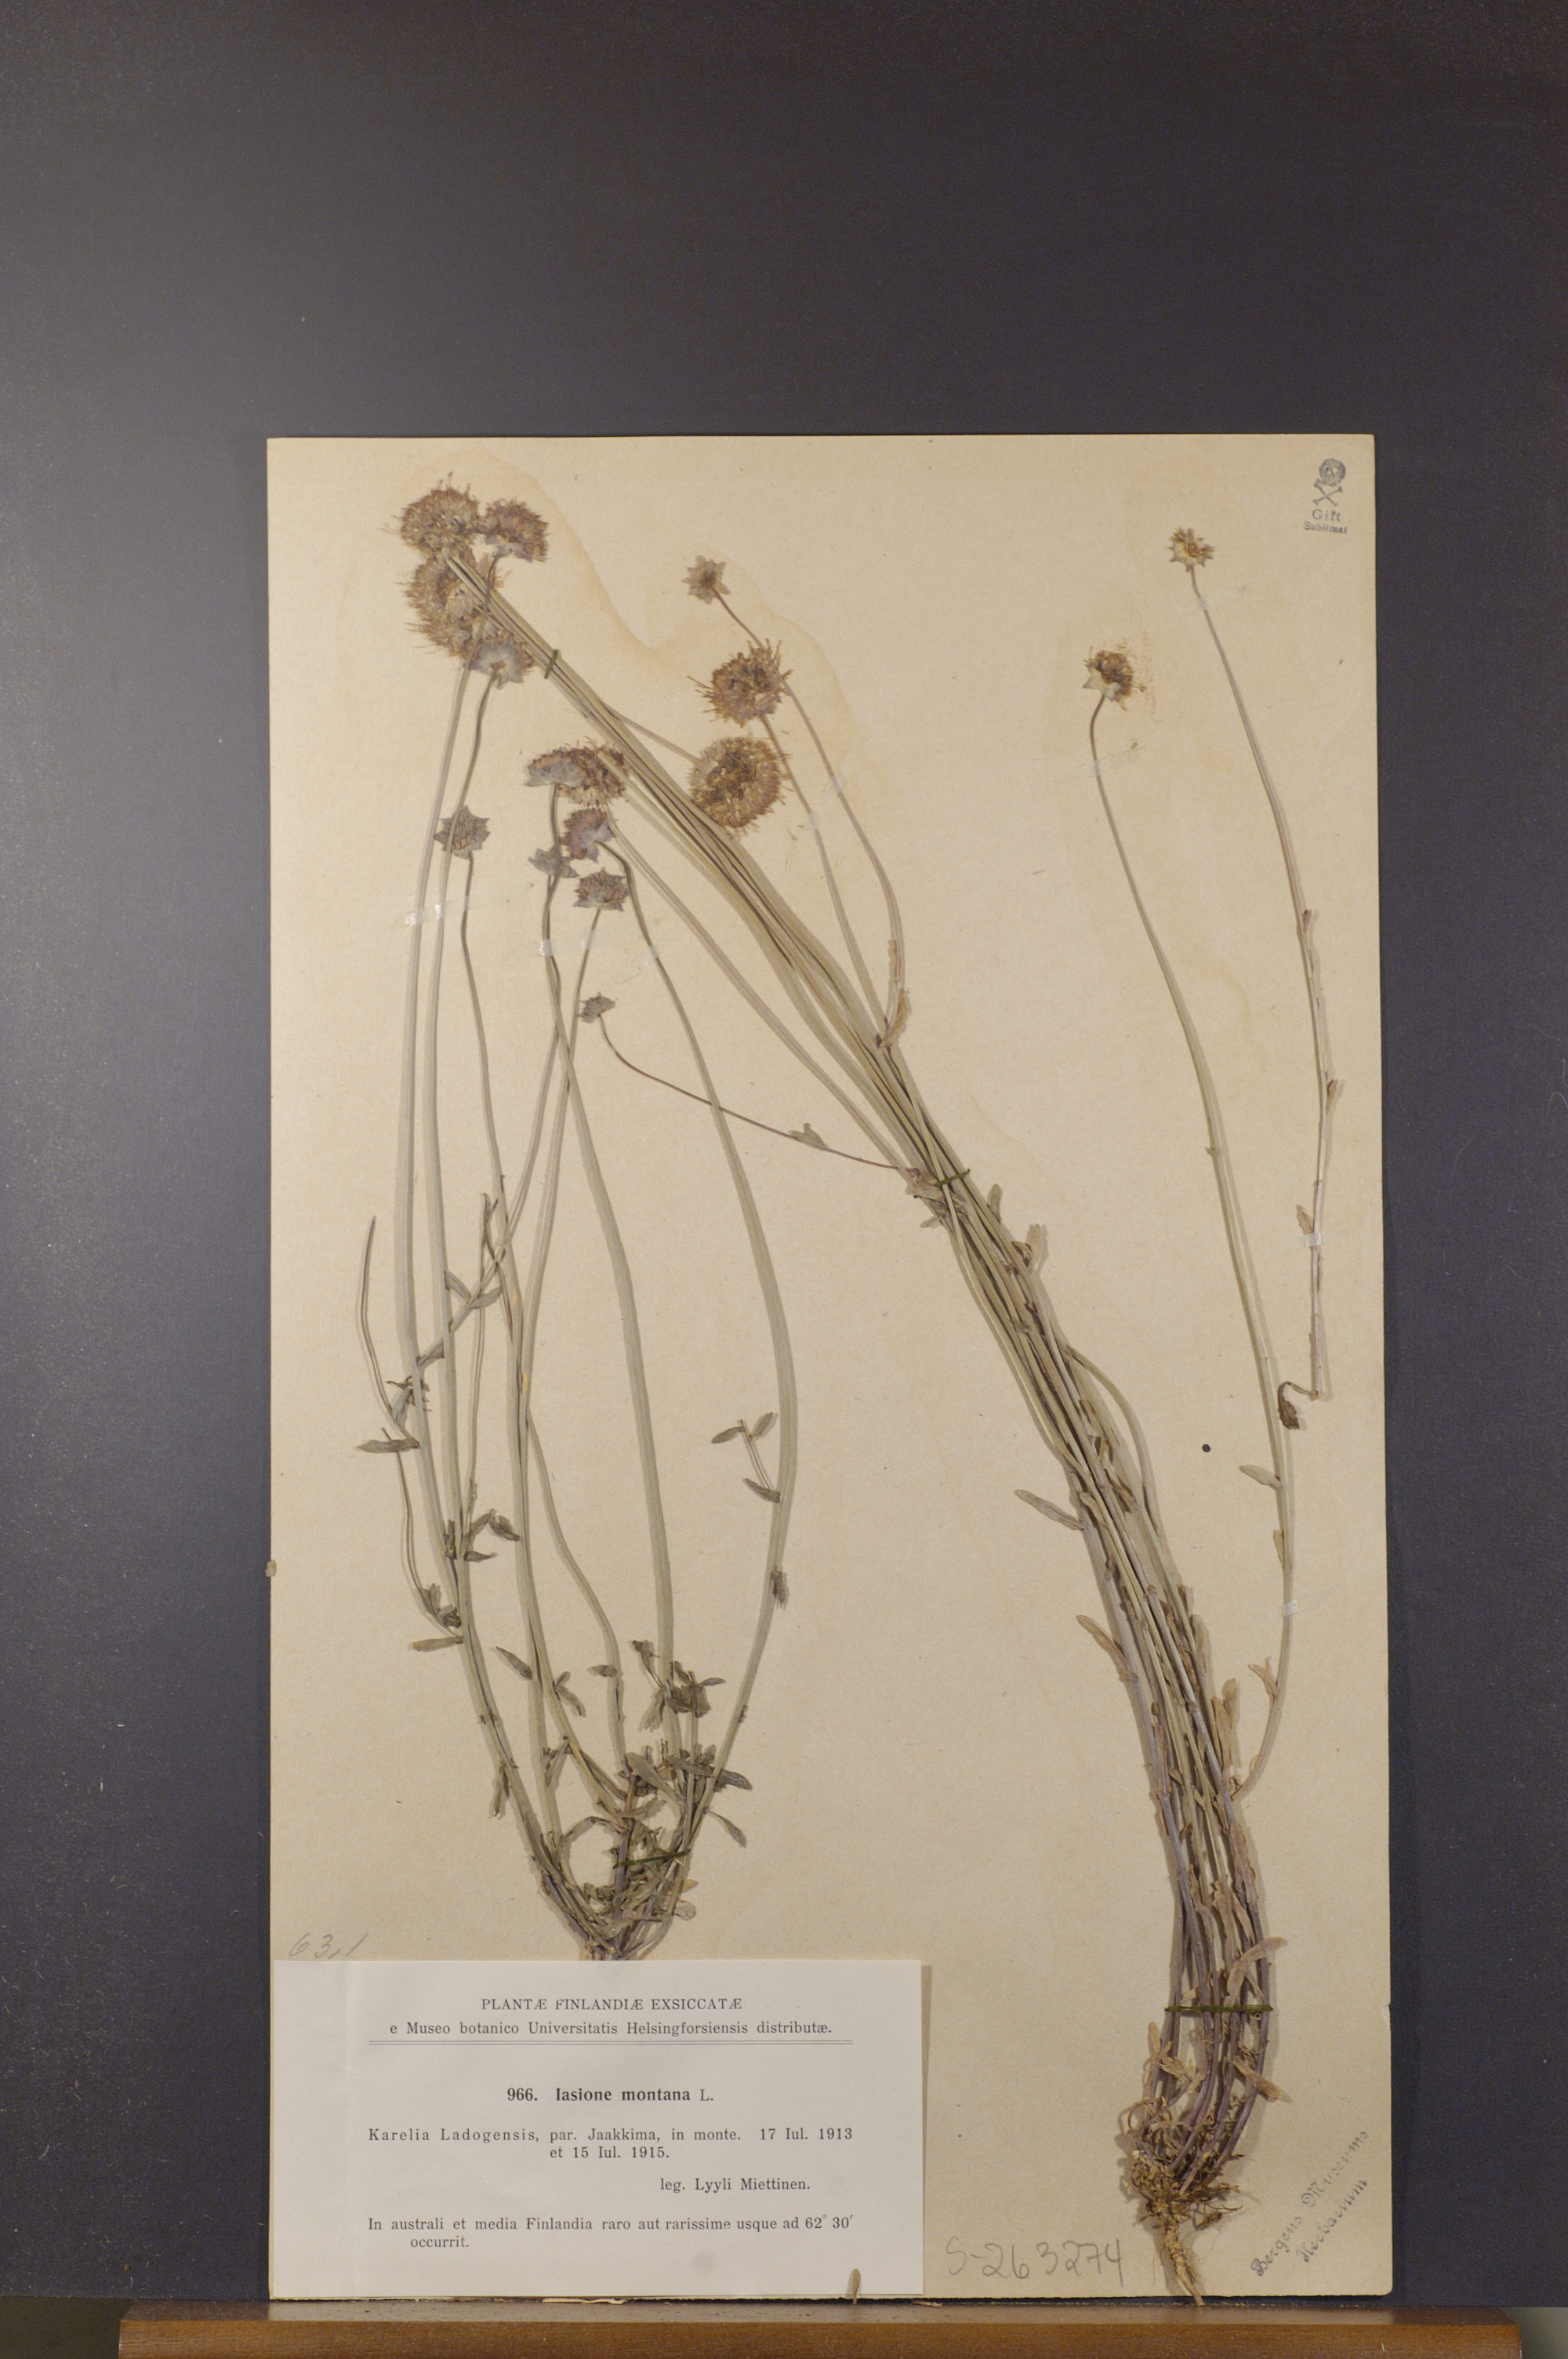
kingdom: Plantae
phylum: Tracheophyta
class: Magnoliopsida
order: Asterales
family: Campanulaceae
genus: Jasione
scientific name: Jasione montana
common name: Sheep's-bit
